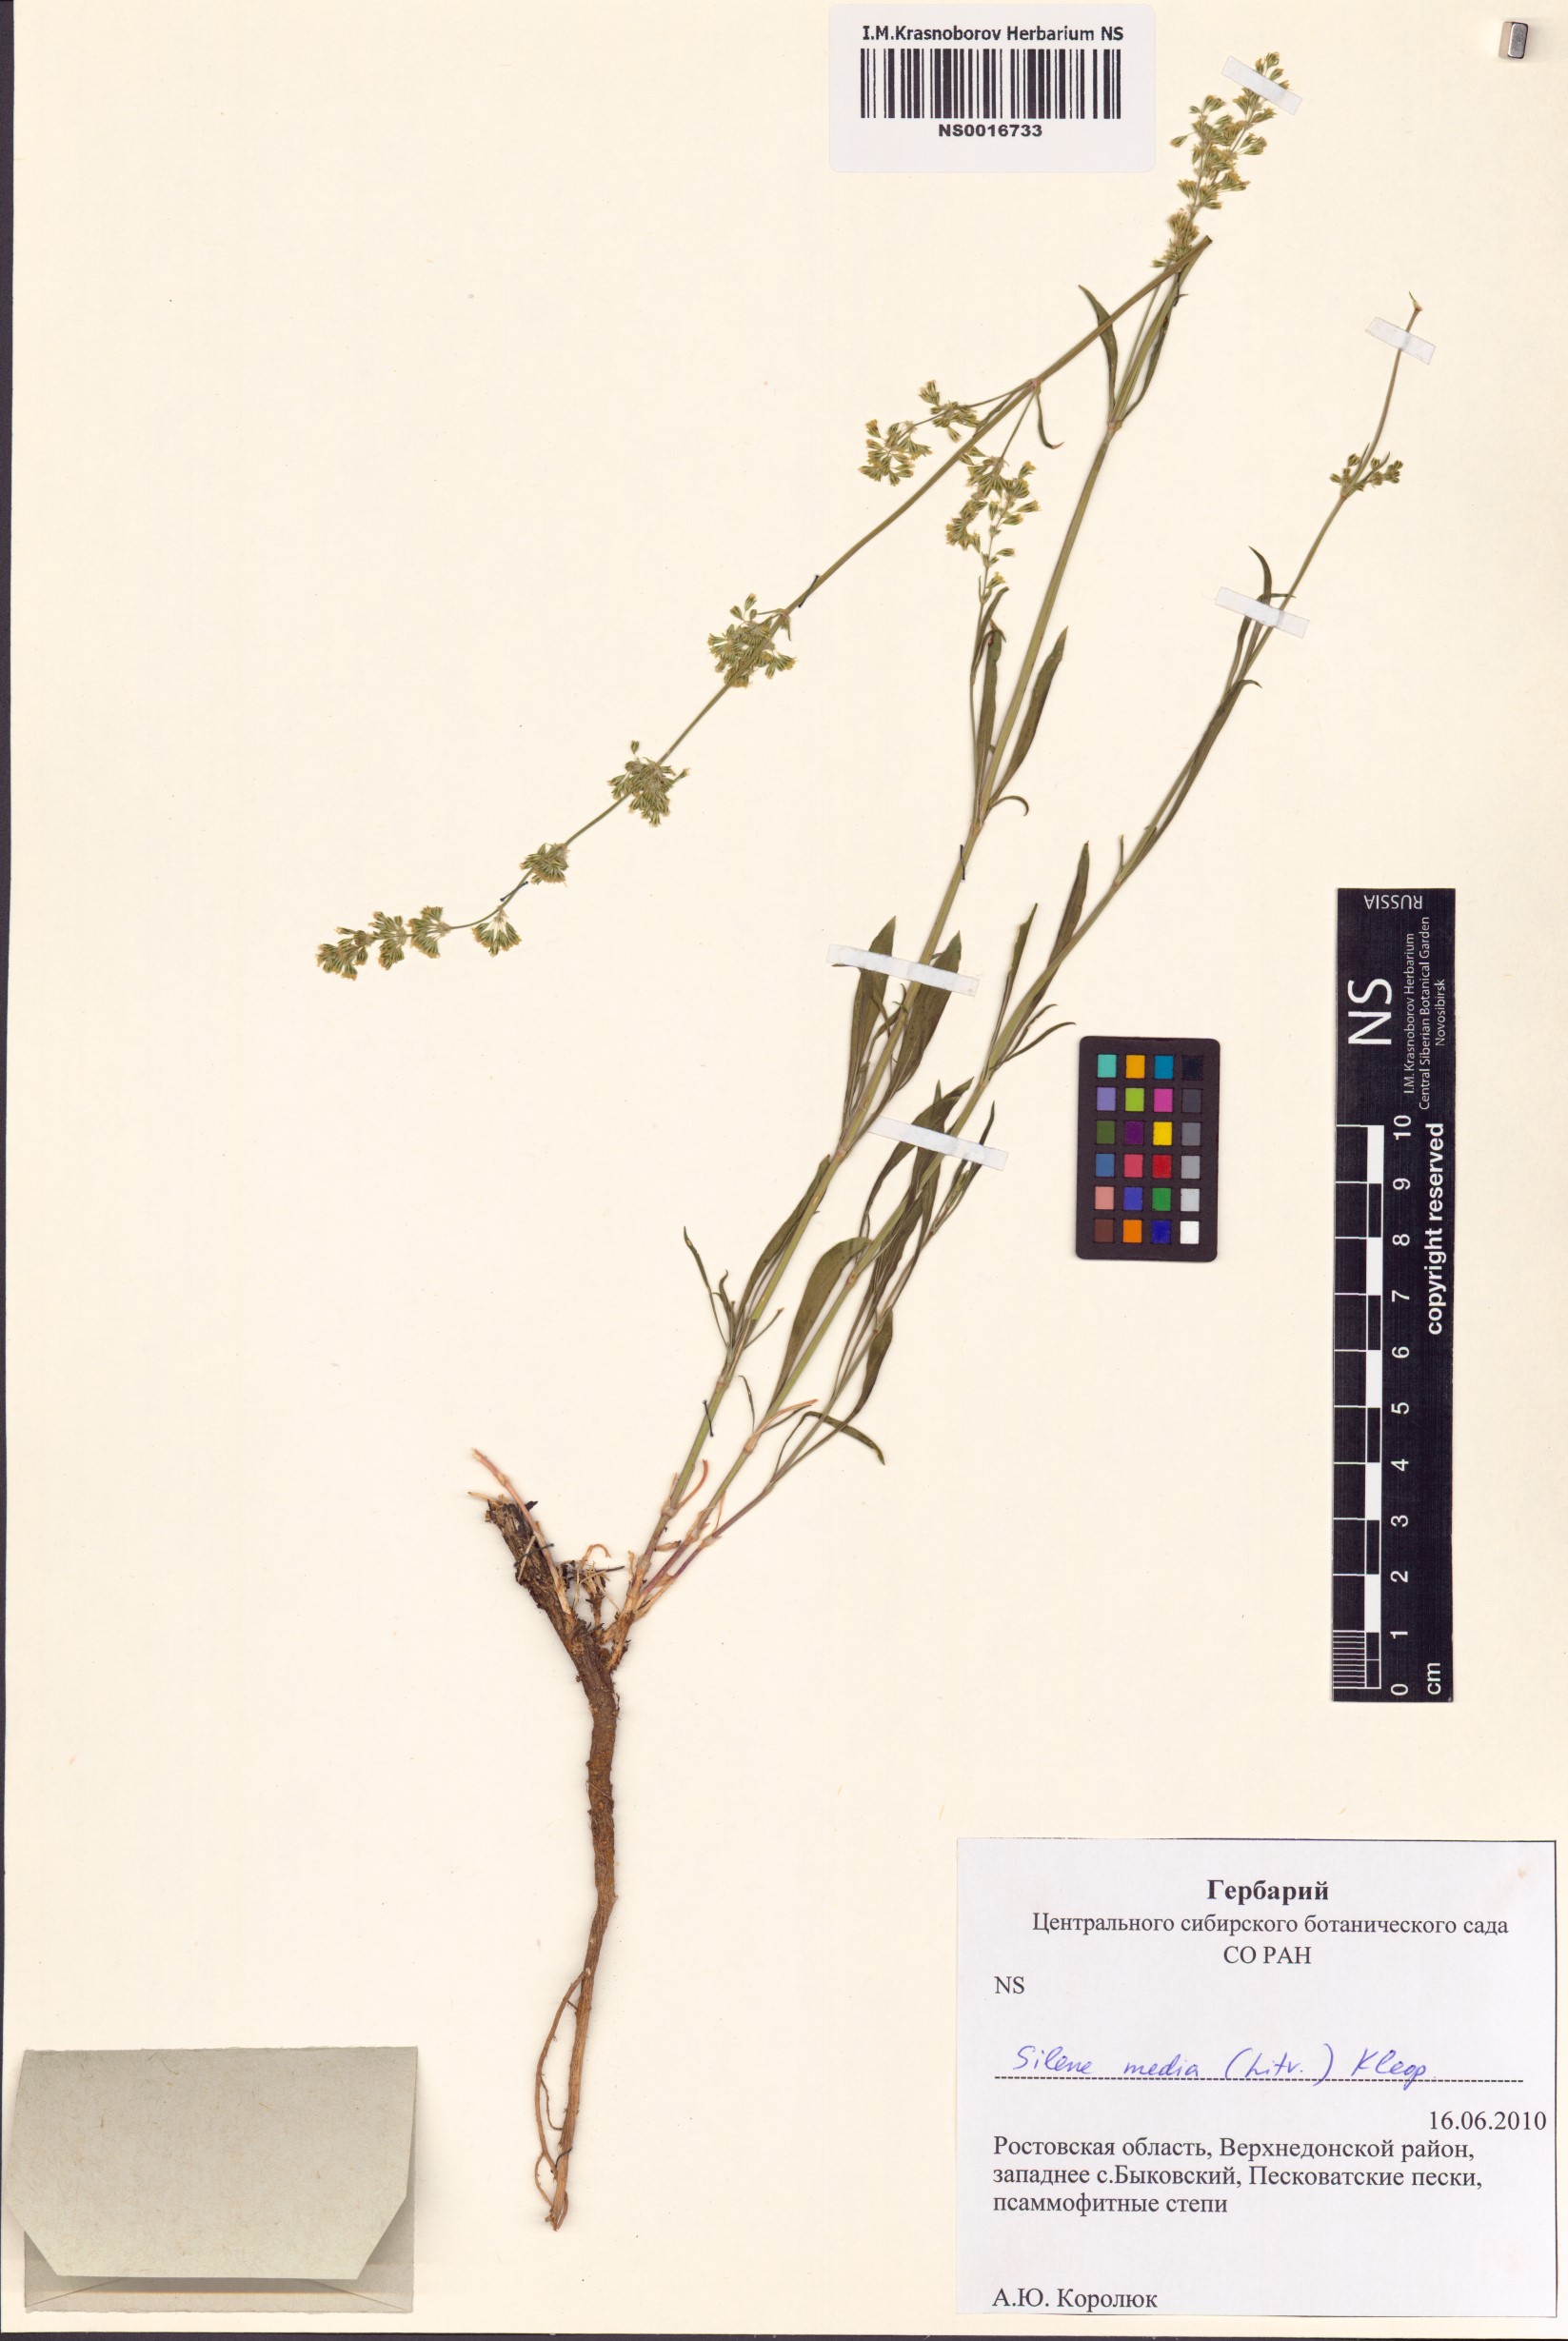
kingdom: Plantae
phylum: Tracheophyta
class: Magnoliopsida
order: Caryophyllales
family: Caryophyllaceae
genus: Silene
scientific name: Silene media
